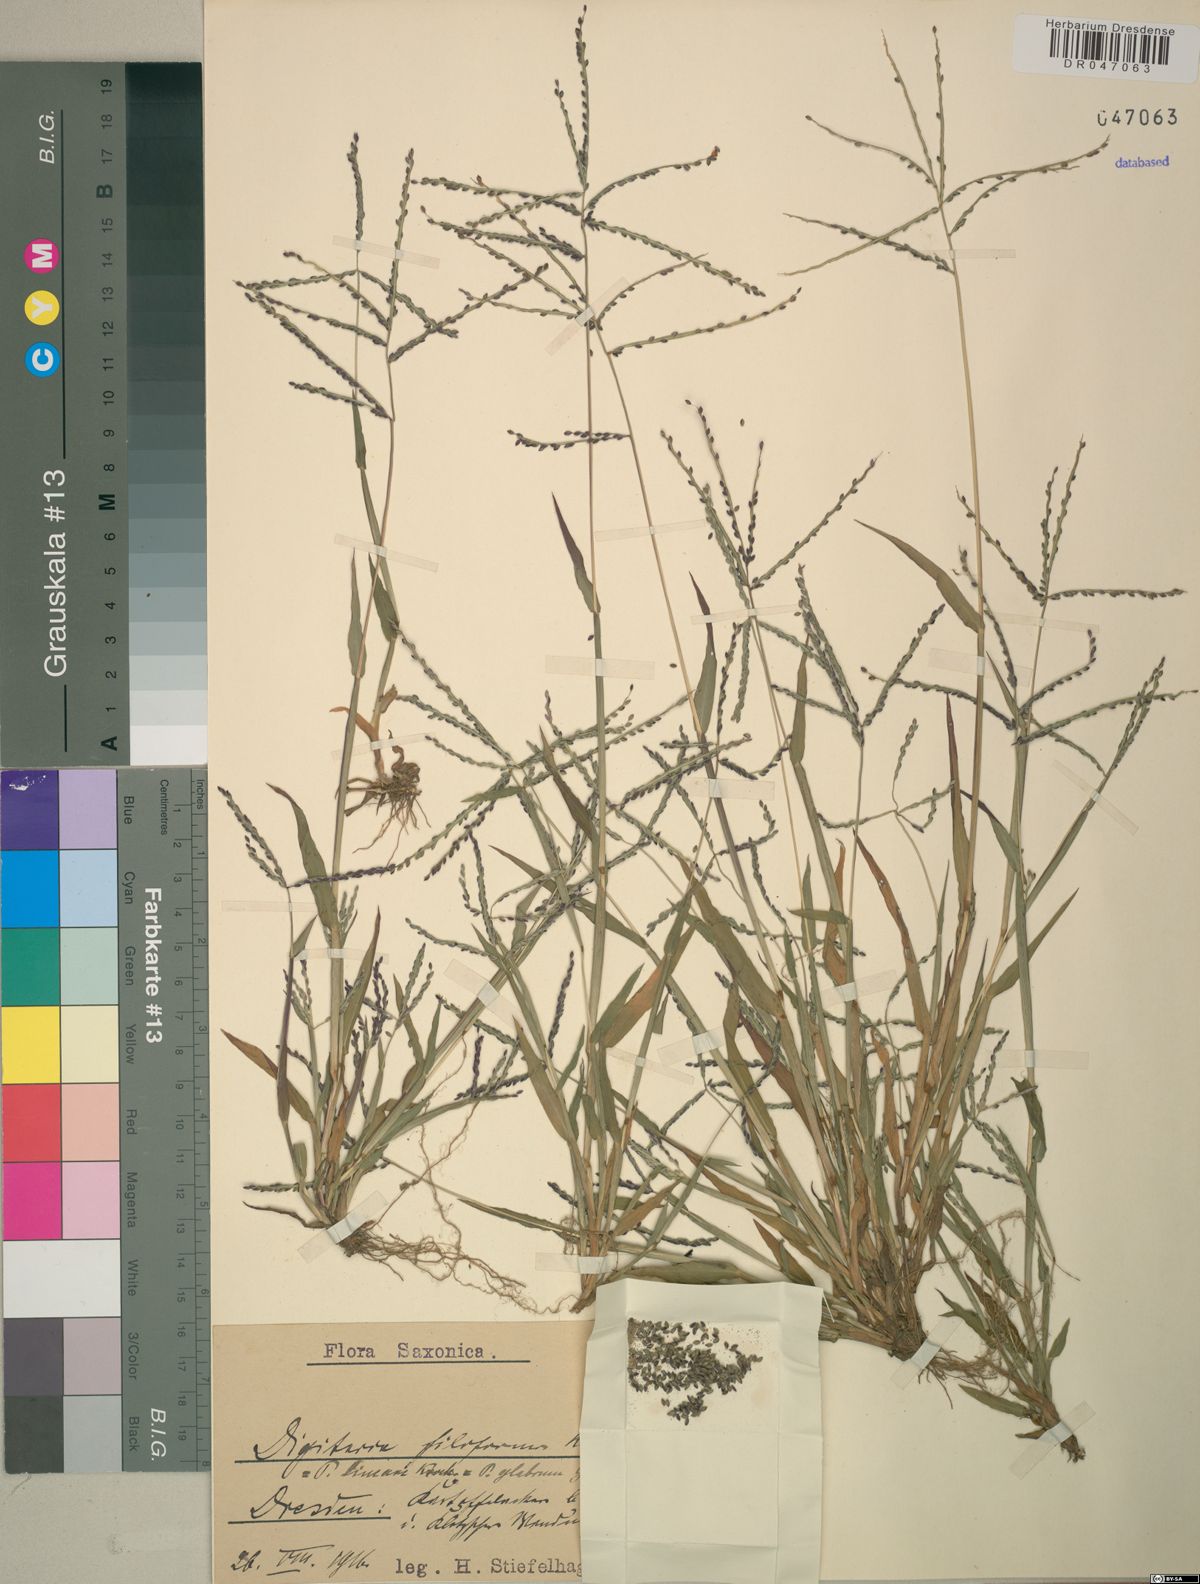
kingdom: Plantae
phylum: Tracheophyta
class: Liliopsida
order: Poales
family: Poaceae
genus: Digitaria
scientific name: Digitaria filiformis
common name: Slender crabgrass
